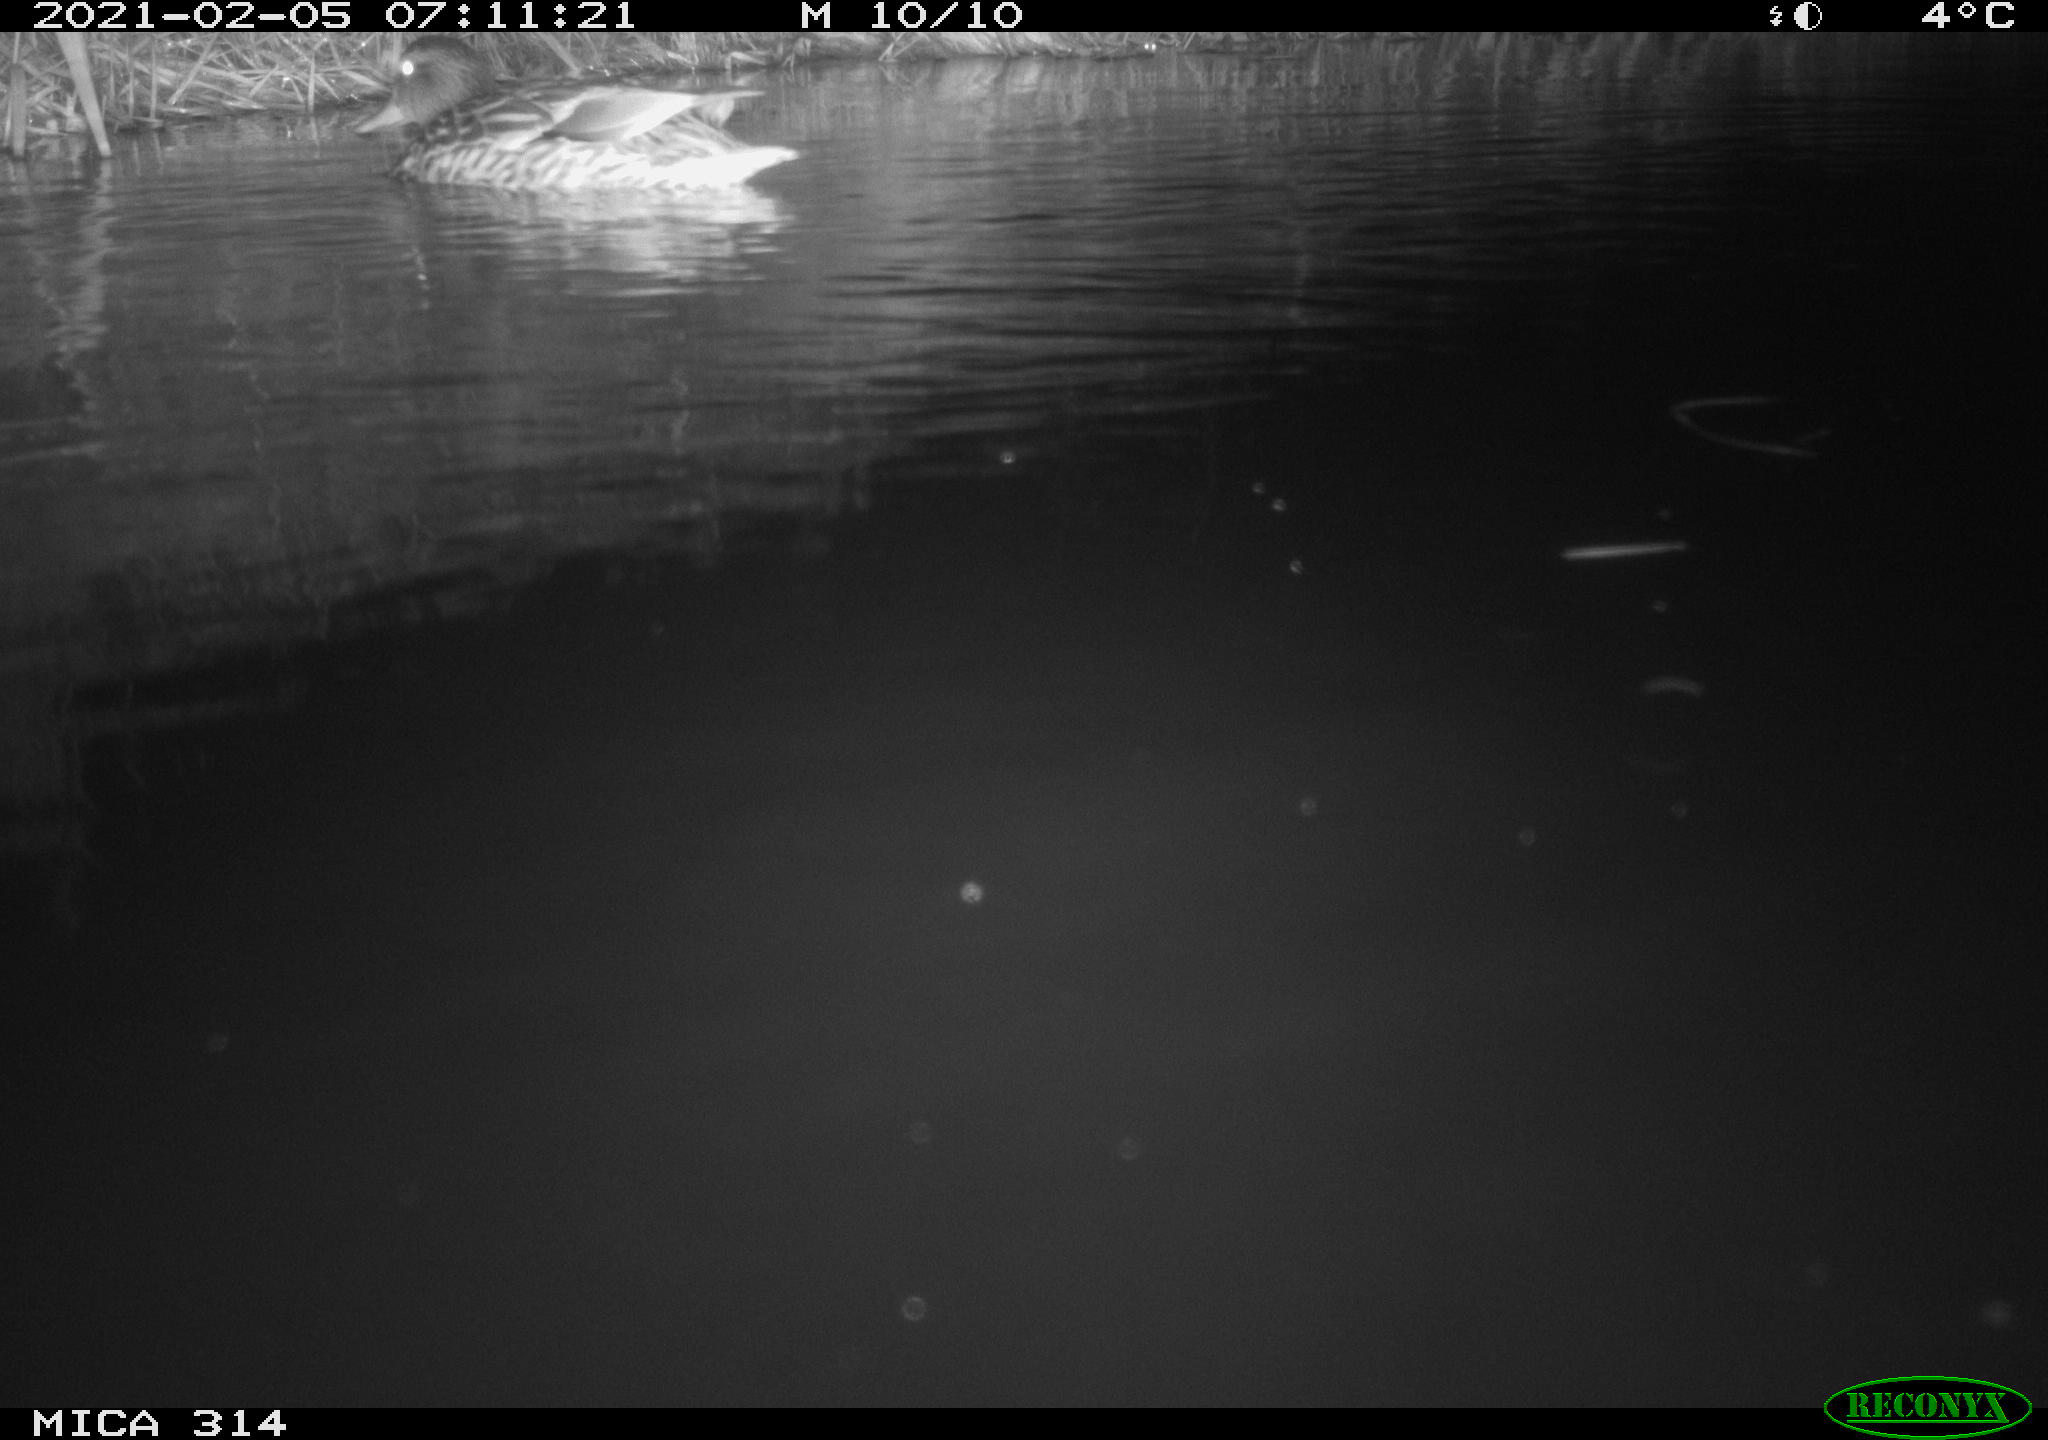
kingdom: Animalia
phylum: Chordata
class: Aves
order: Anseriformes
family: Anatidae
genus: Mareca
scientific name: Mareca strepera
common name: Gadwall
